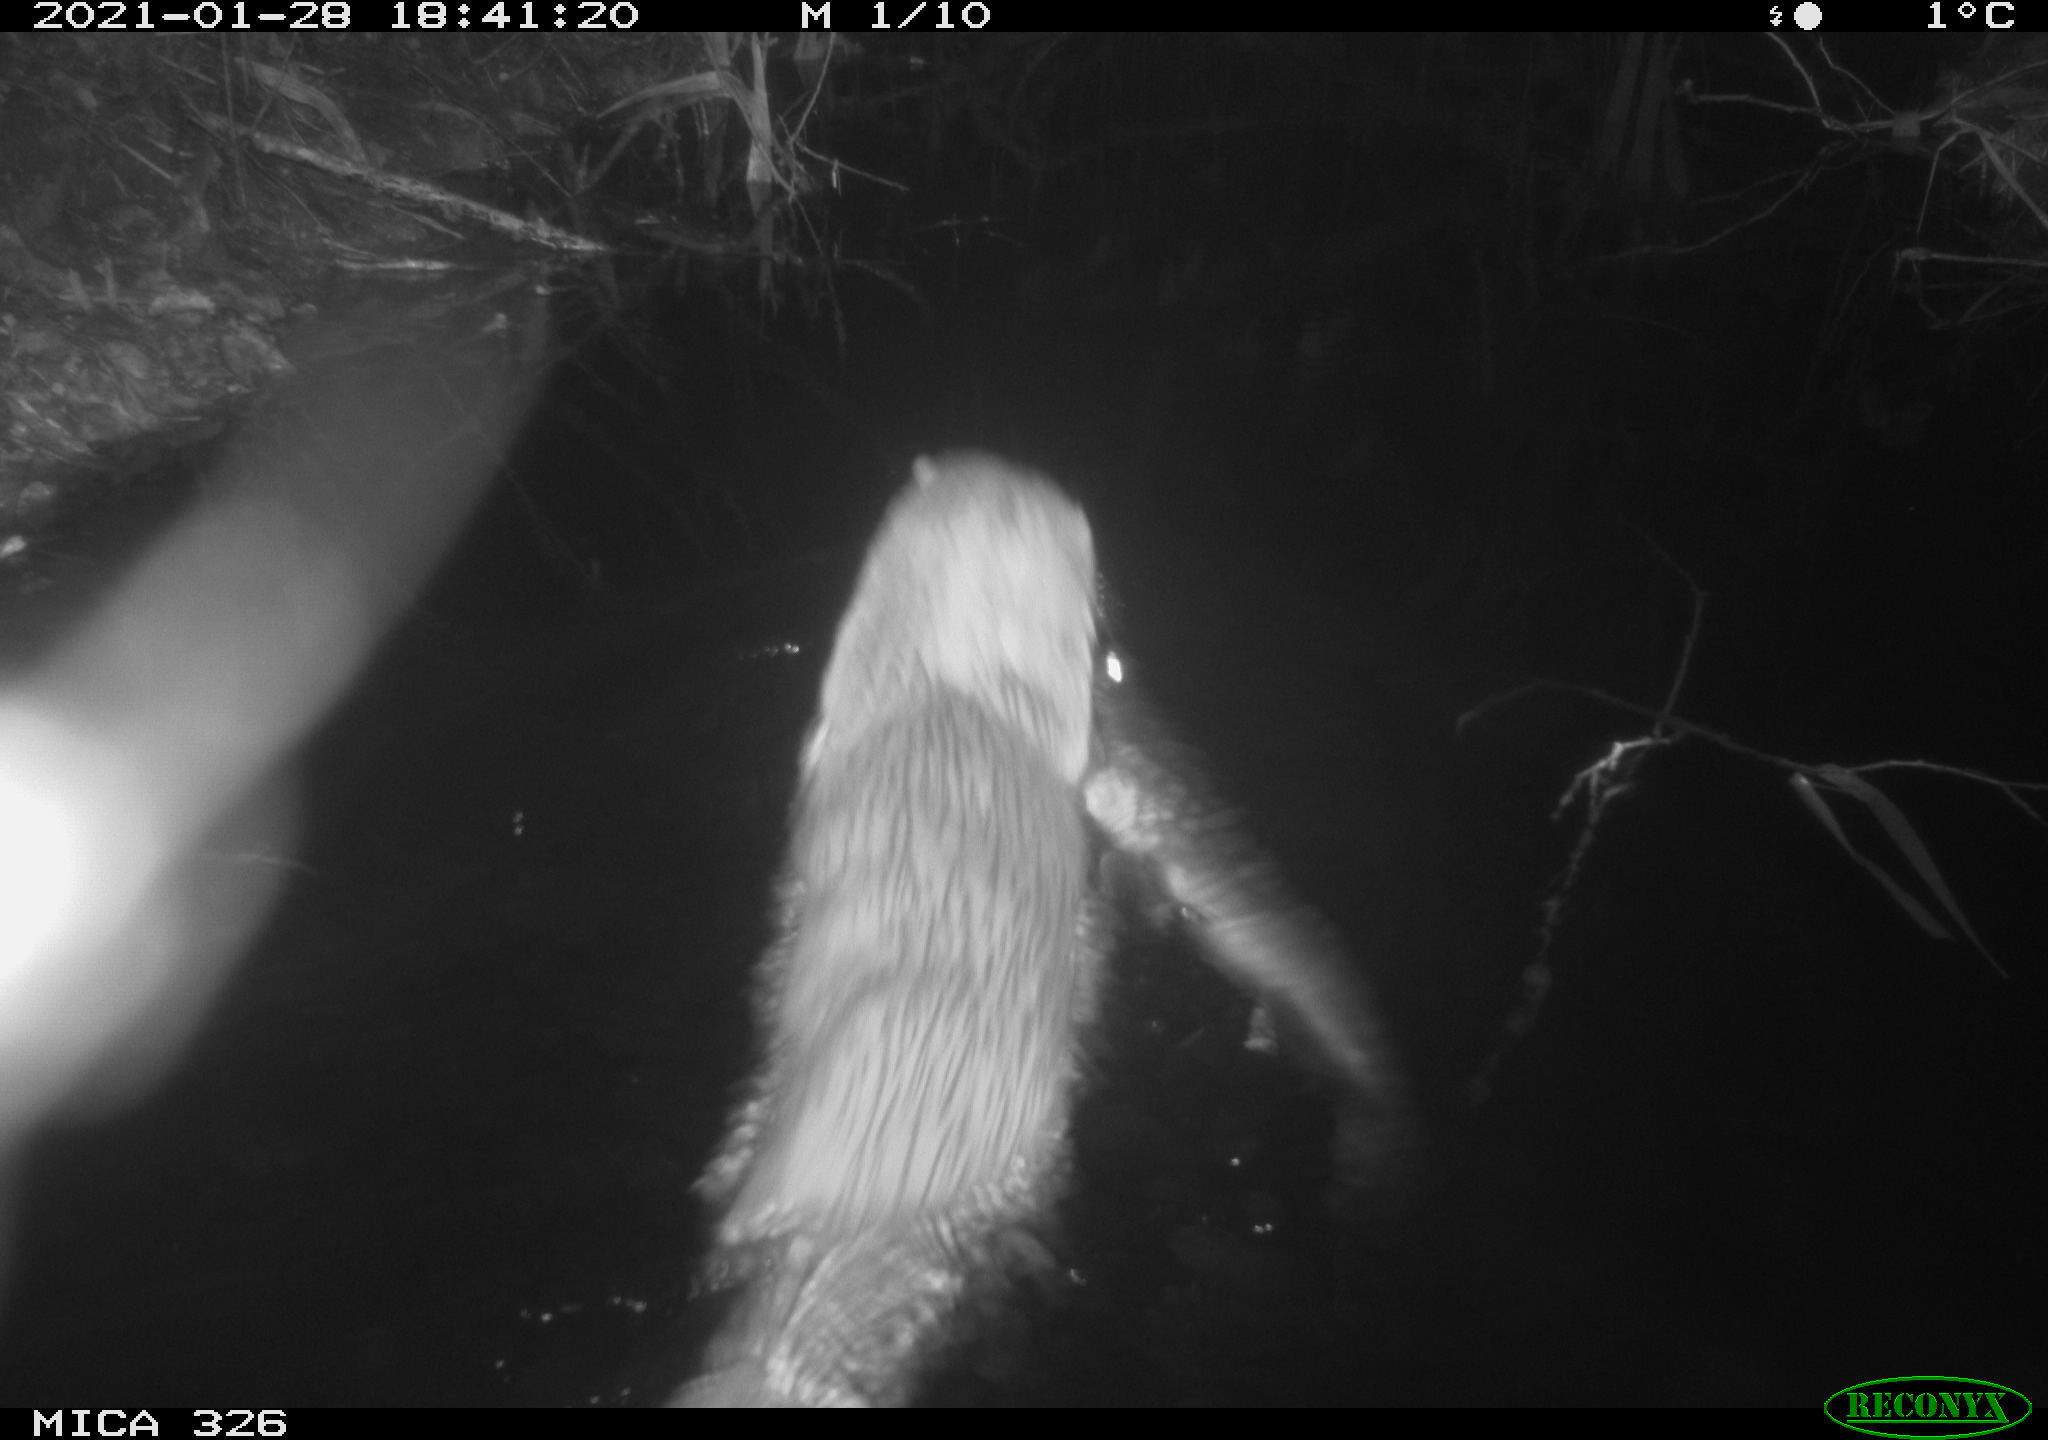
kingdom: Animalia
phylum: Chordata
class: Mammalia
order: Carnivora
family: Mustelidae
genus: Lutra
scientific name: Lutra lutra
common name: European otter
